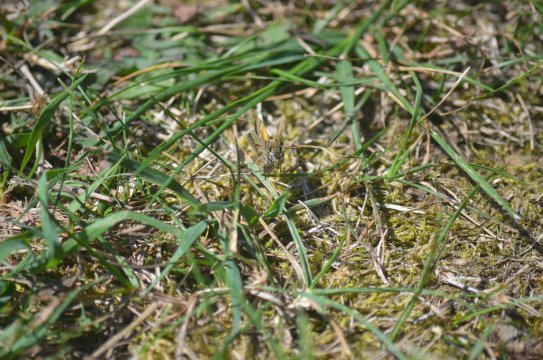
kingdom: Animalia
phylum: Arthropoda
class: Insecta
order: Lepidoptera
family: Hesperiidae
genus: Polites
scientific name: Polites themistocles
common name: Tawny-edged Skipper
